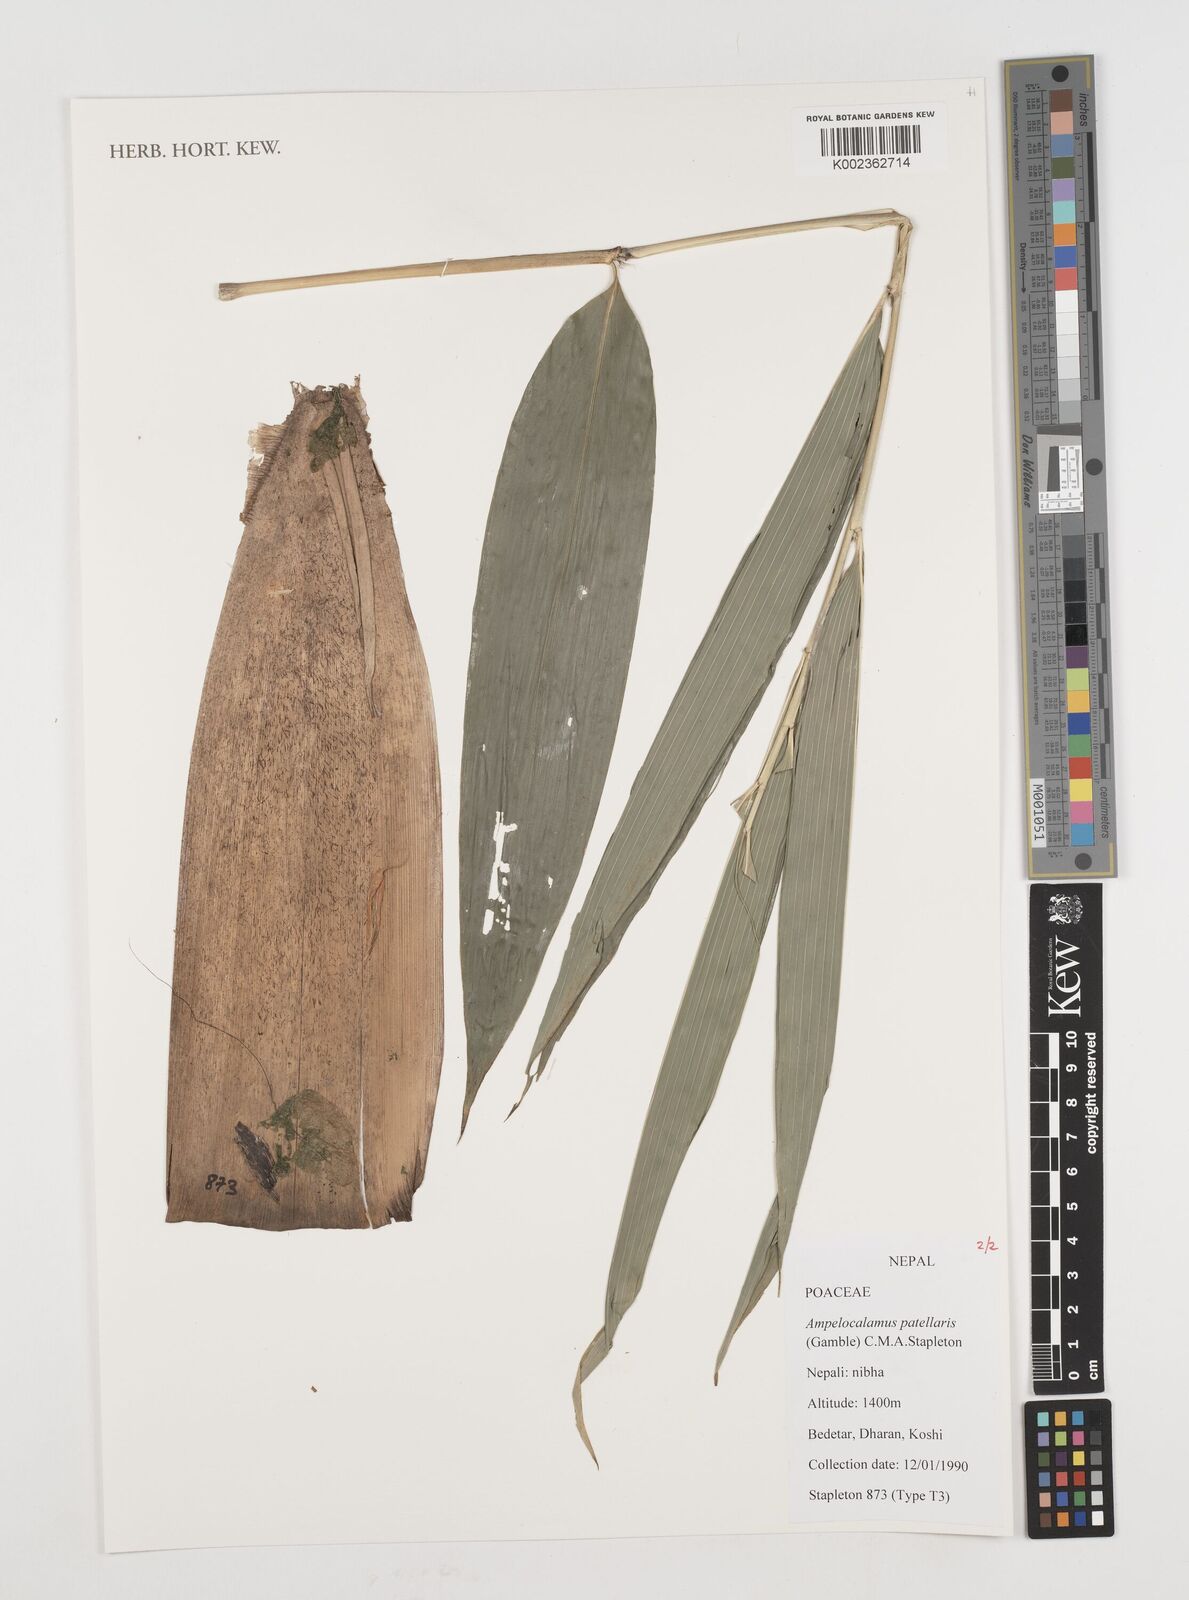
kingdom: Plantae
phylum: Tracheophyta
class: Liliopsida
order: Poales
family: Poaceae
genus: Ampelocalamus
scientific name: Ampelocalamus patellaris
